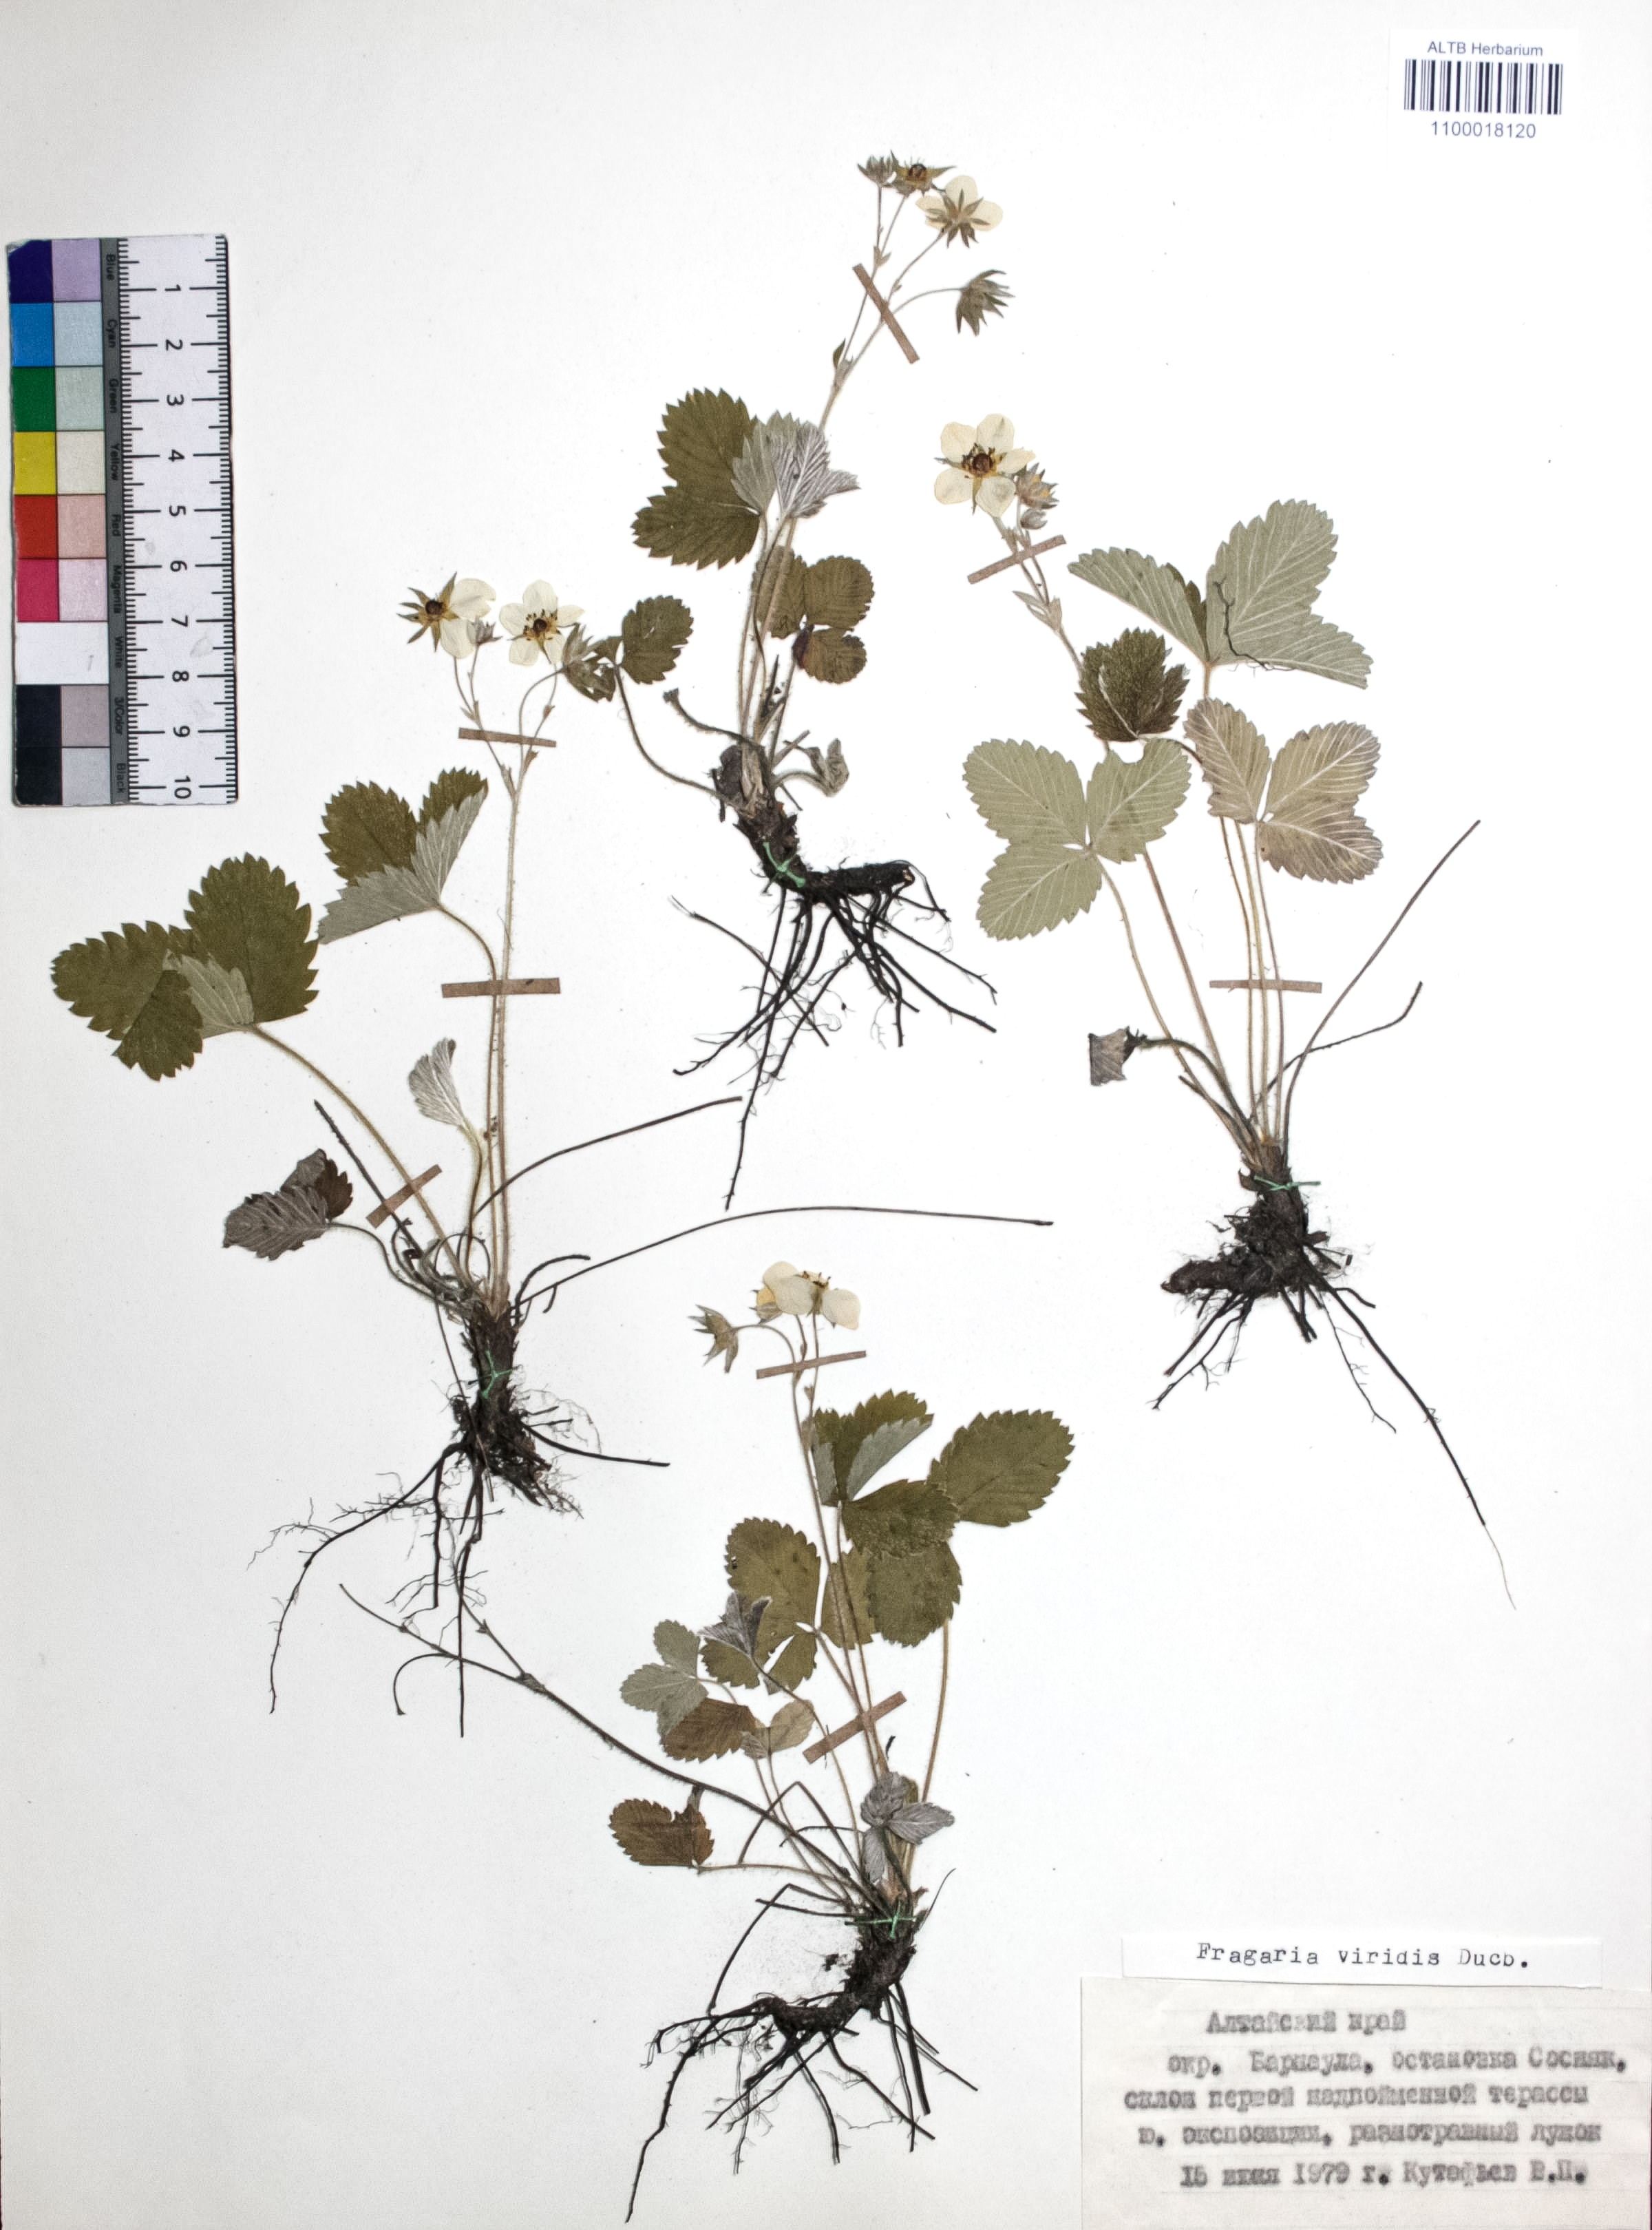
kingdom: Plantae
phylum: Tracheophyta
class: Magnoliopsida
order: Rosales
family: Rosaceae
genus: Fragaria
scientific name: Fragaria viridis
